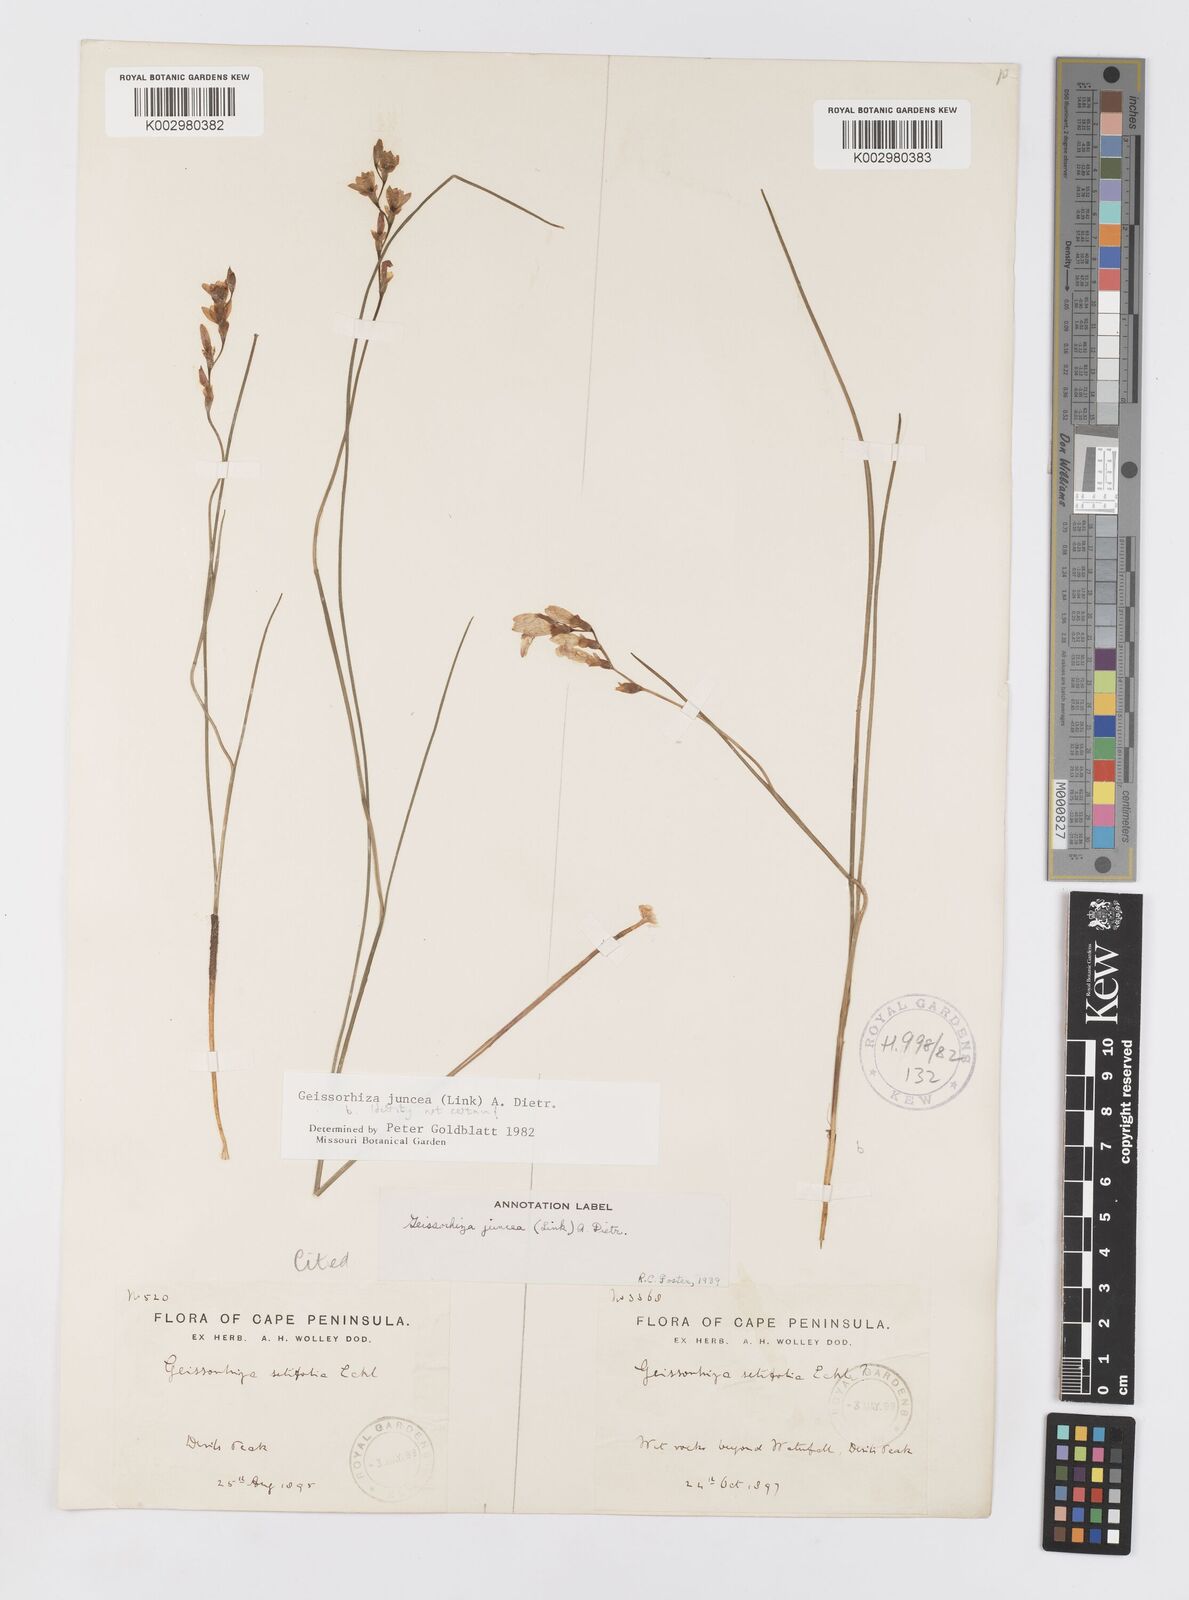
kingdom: Plantae
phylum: Tracheophyta
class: Liliopsida
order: Asparagales
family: Iridaceae
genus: Geissorhiza
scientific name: Geissorhiza juncea
